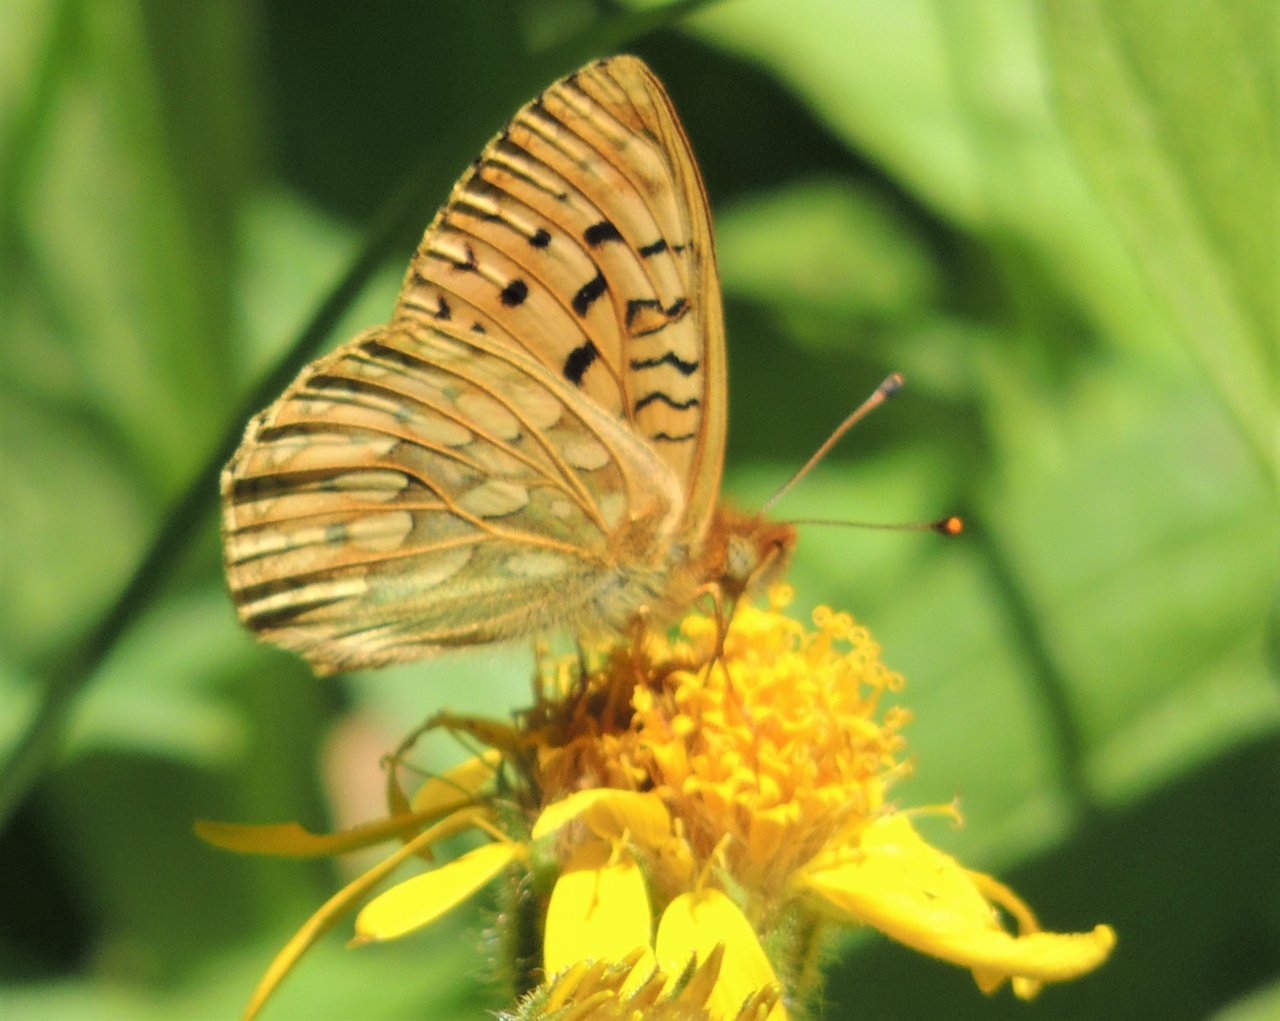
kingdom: Animalia
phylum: Arthropoda
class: Insecta
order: Lepidoptera
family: Nymphalidae
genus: Speyeria
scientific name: Speyeria mormonia
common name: Mormon Fritillary
